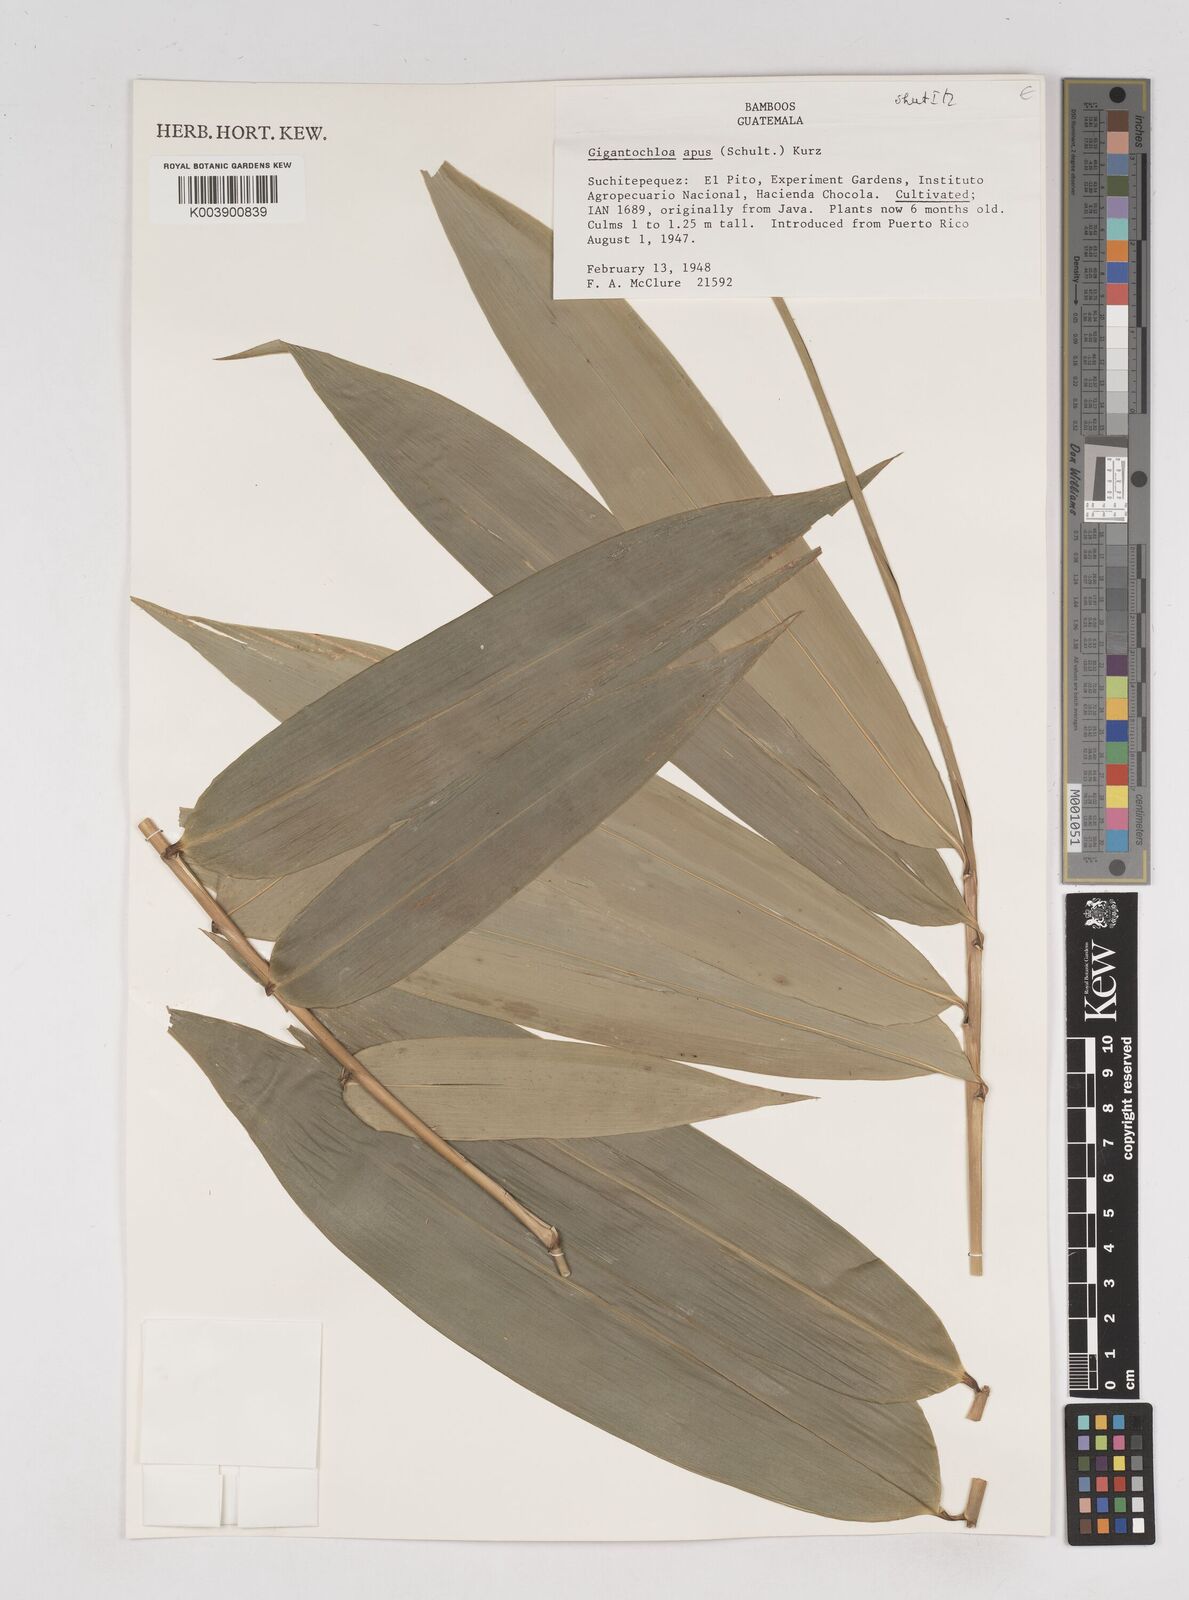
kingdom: Plantae
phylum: Tracheophyta
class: Liliopsida
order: Poales
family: Poaceae
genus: Gigantochloa
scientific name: Gigantochloa apus
